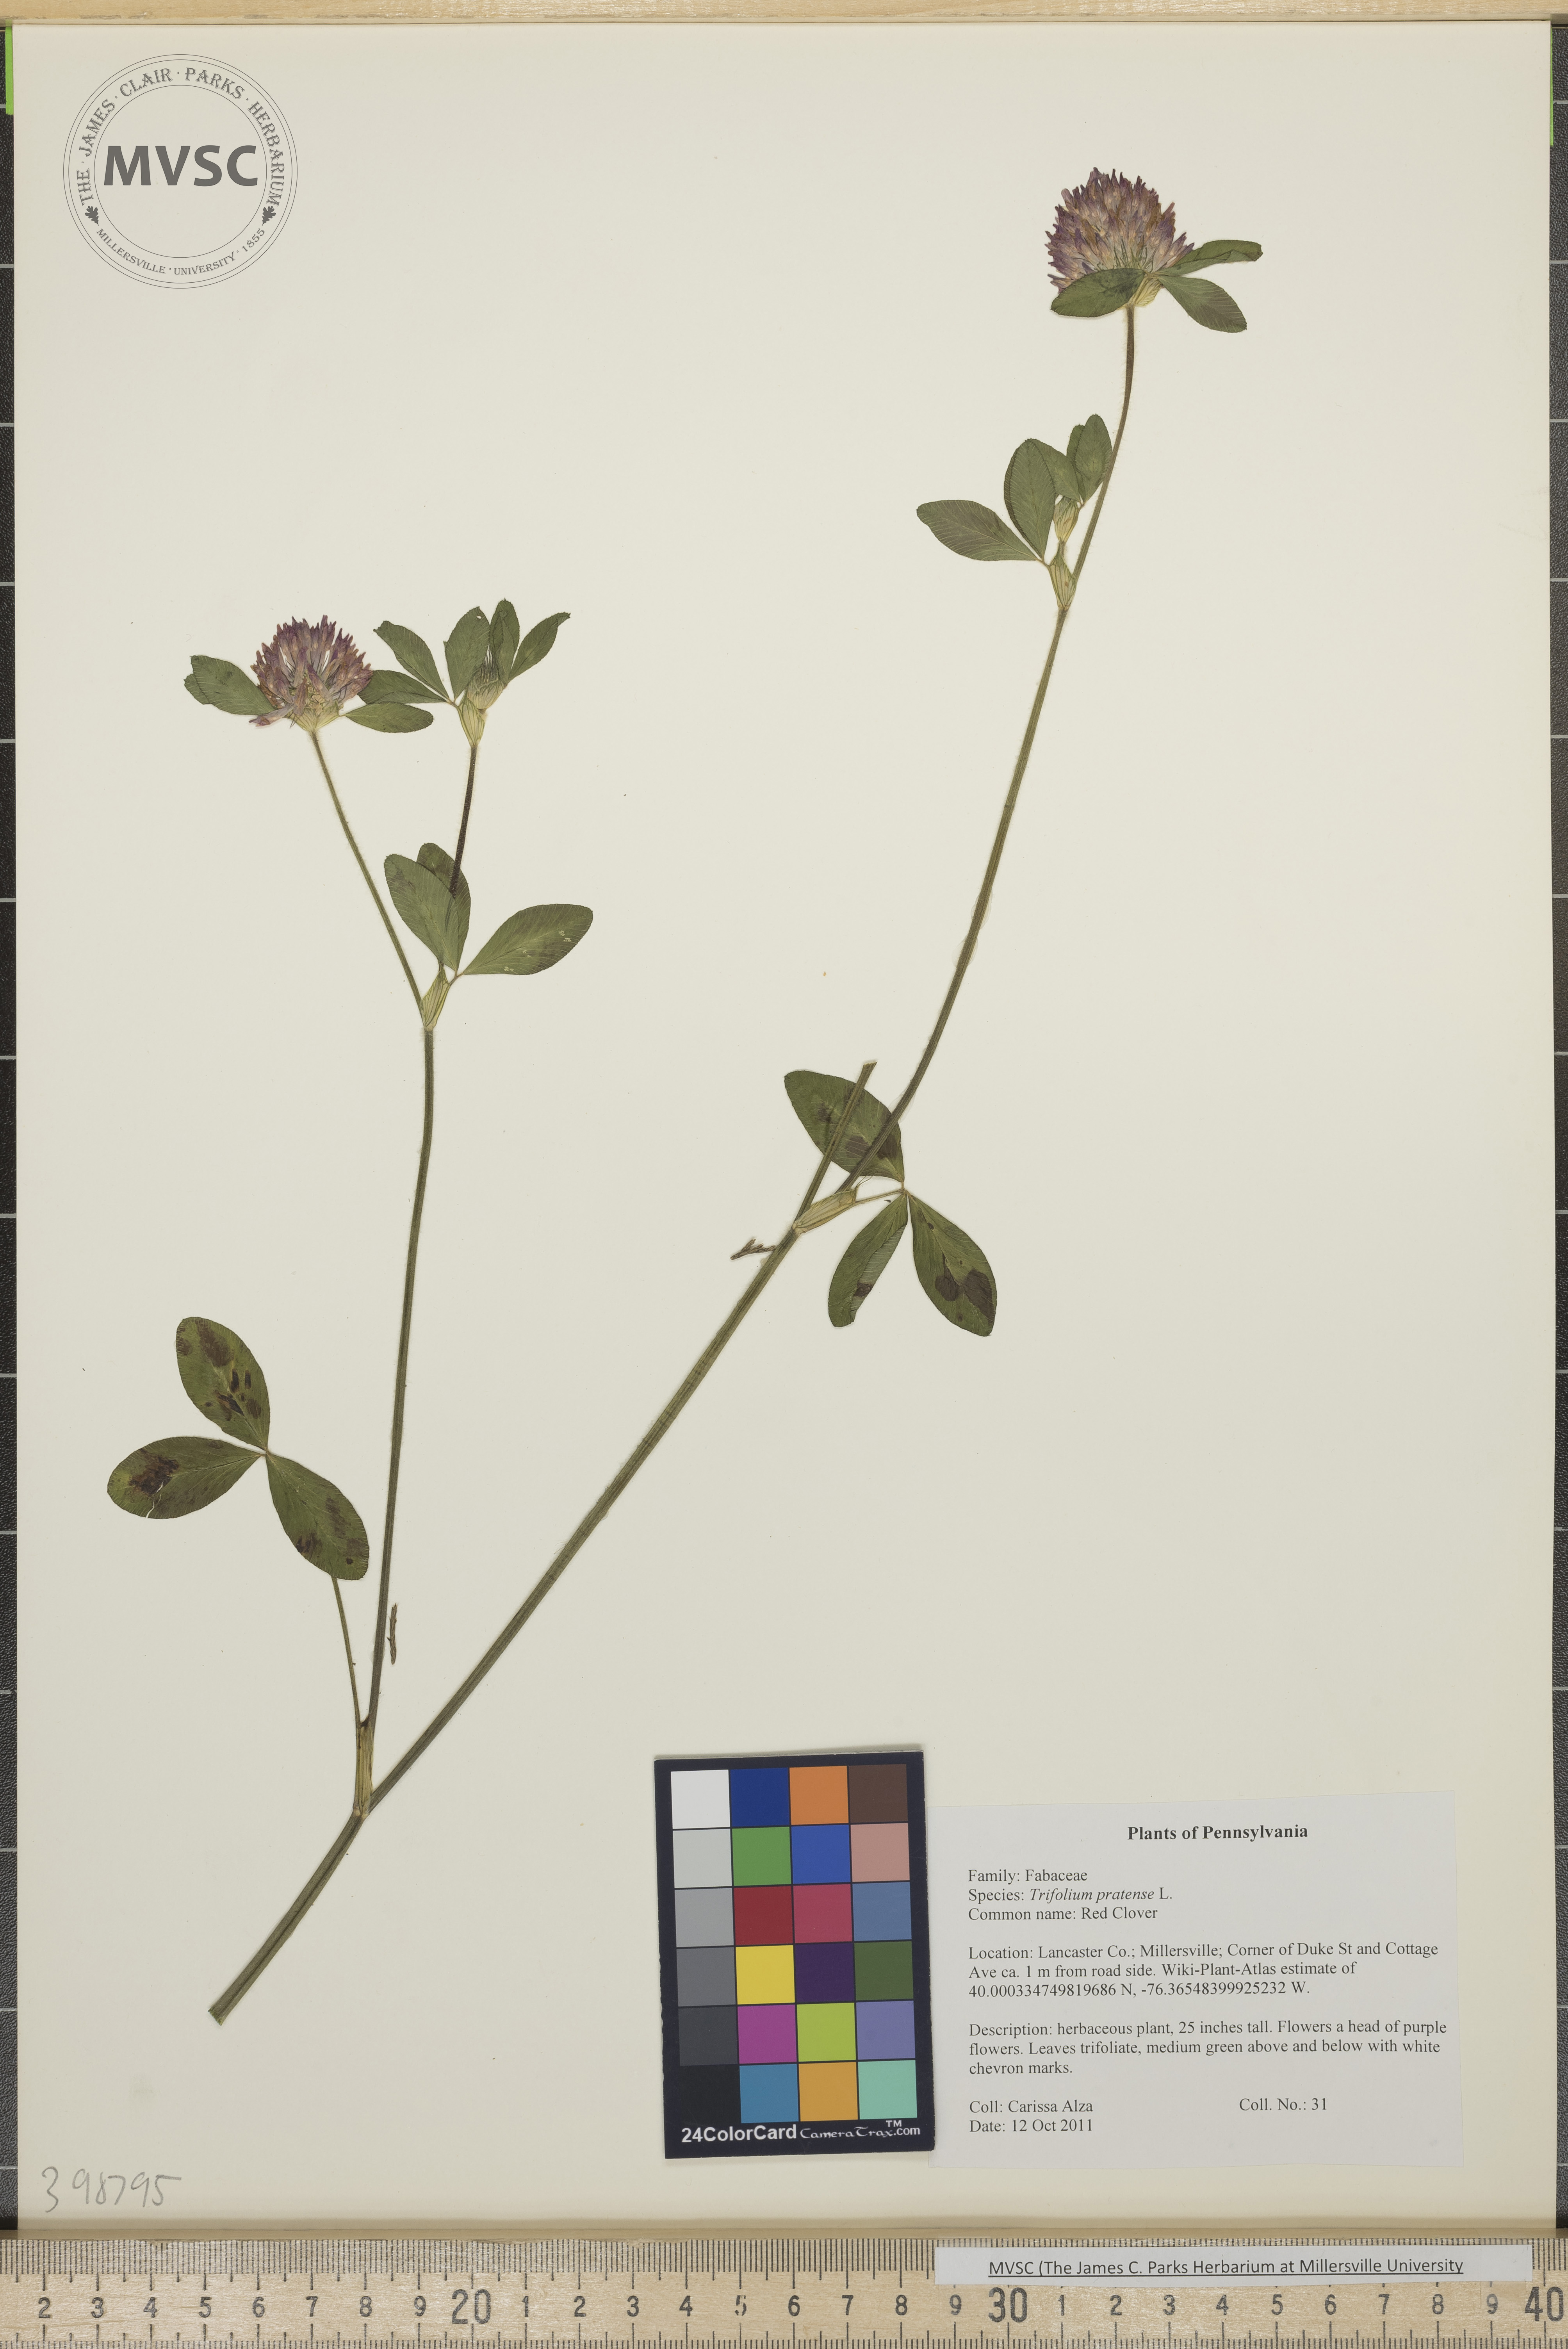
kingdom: Plantae
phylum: Tracheophyta
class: Magnoliopsida
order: Fabales
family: Fabaceae
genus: Trifolium
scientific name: Trifolium pratense
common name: Red clover
